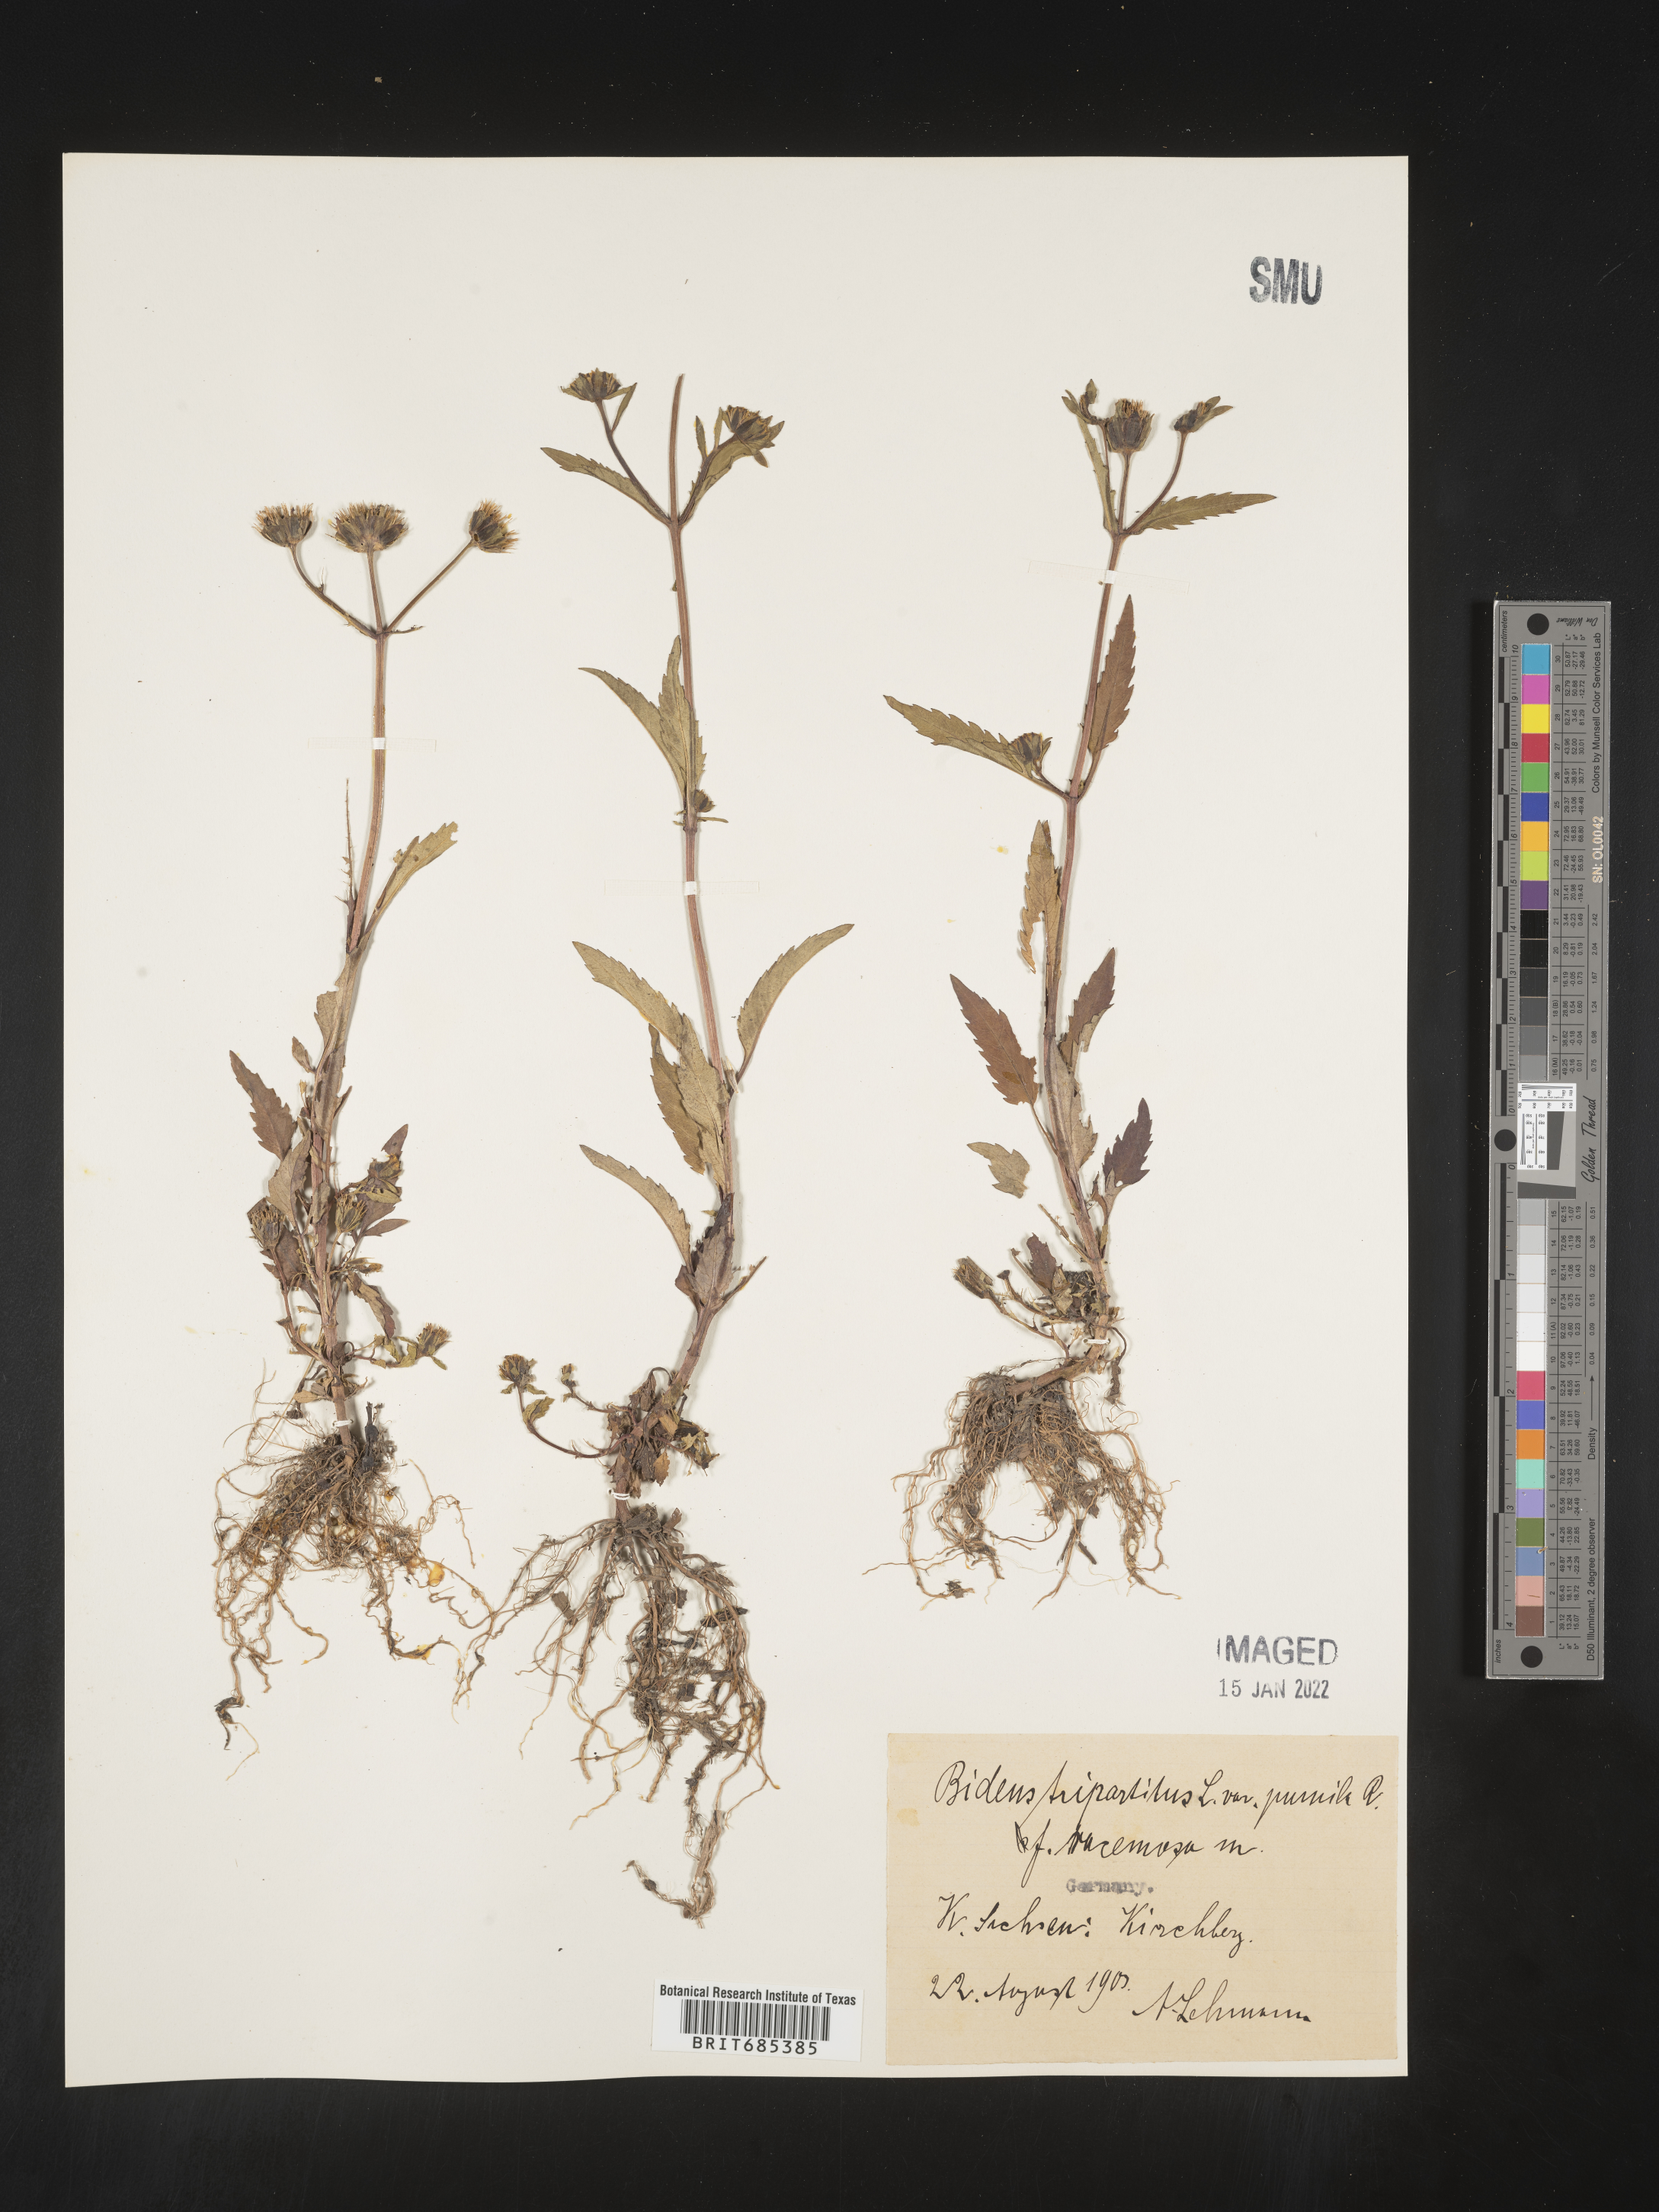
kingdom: Plantae
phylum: Tracheophyta
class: Magnoliopsida
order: Asterales
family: Asteraceae
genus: Bidens
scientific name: Bidens
